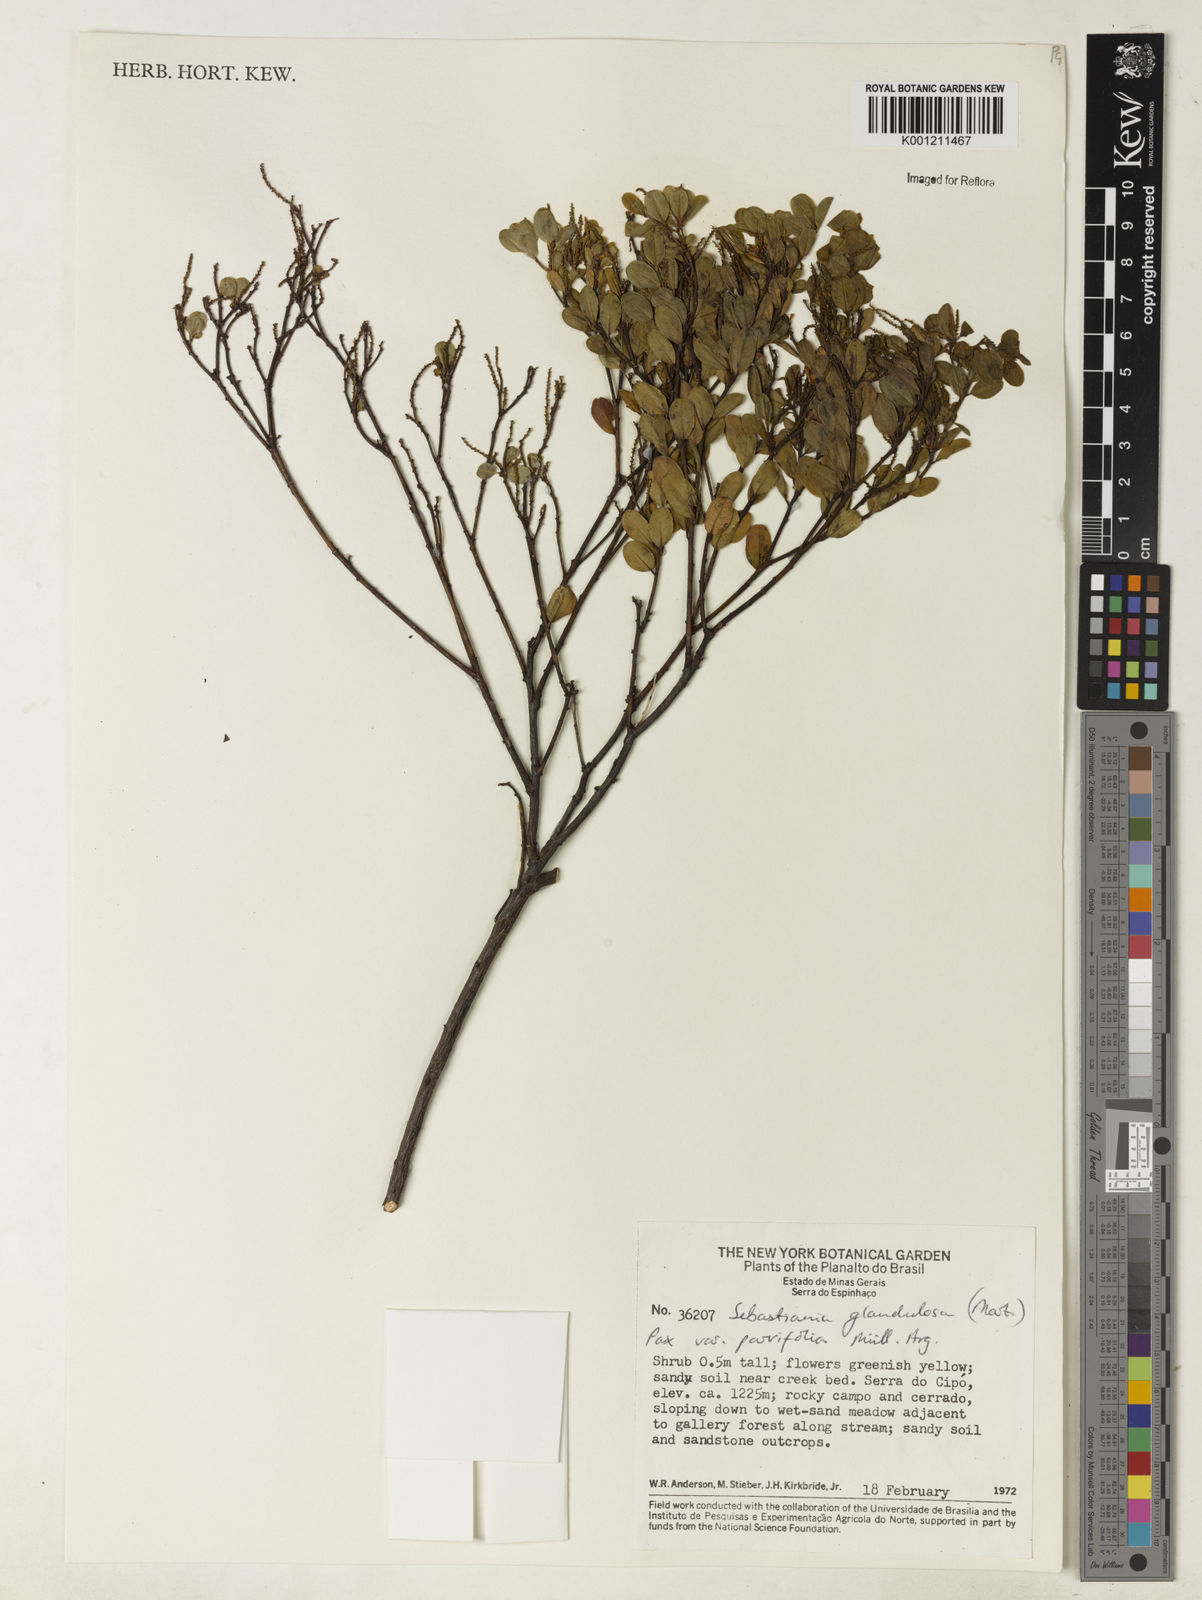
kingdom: Plantae
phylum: Tracheophyta
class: Magnoliopsida
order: Malpighiales
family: Euphorbiaceae
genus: Microstachys
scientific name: Microstachys glandulosa
